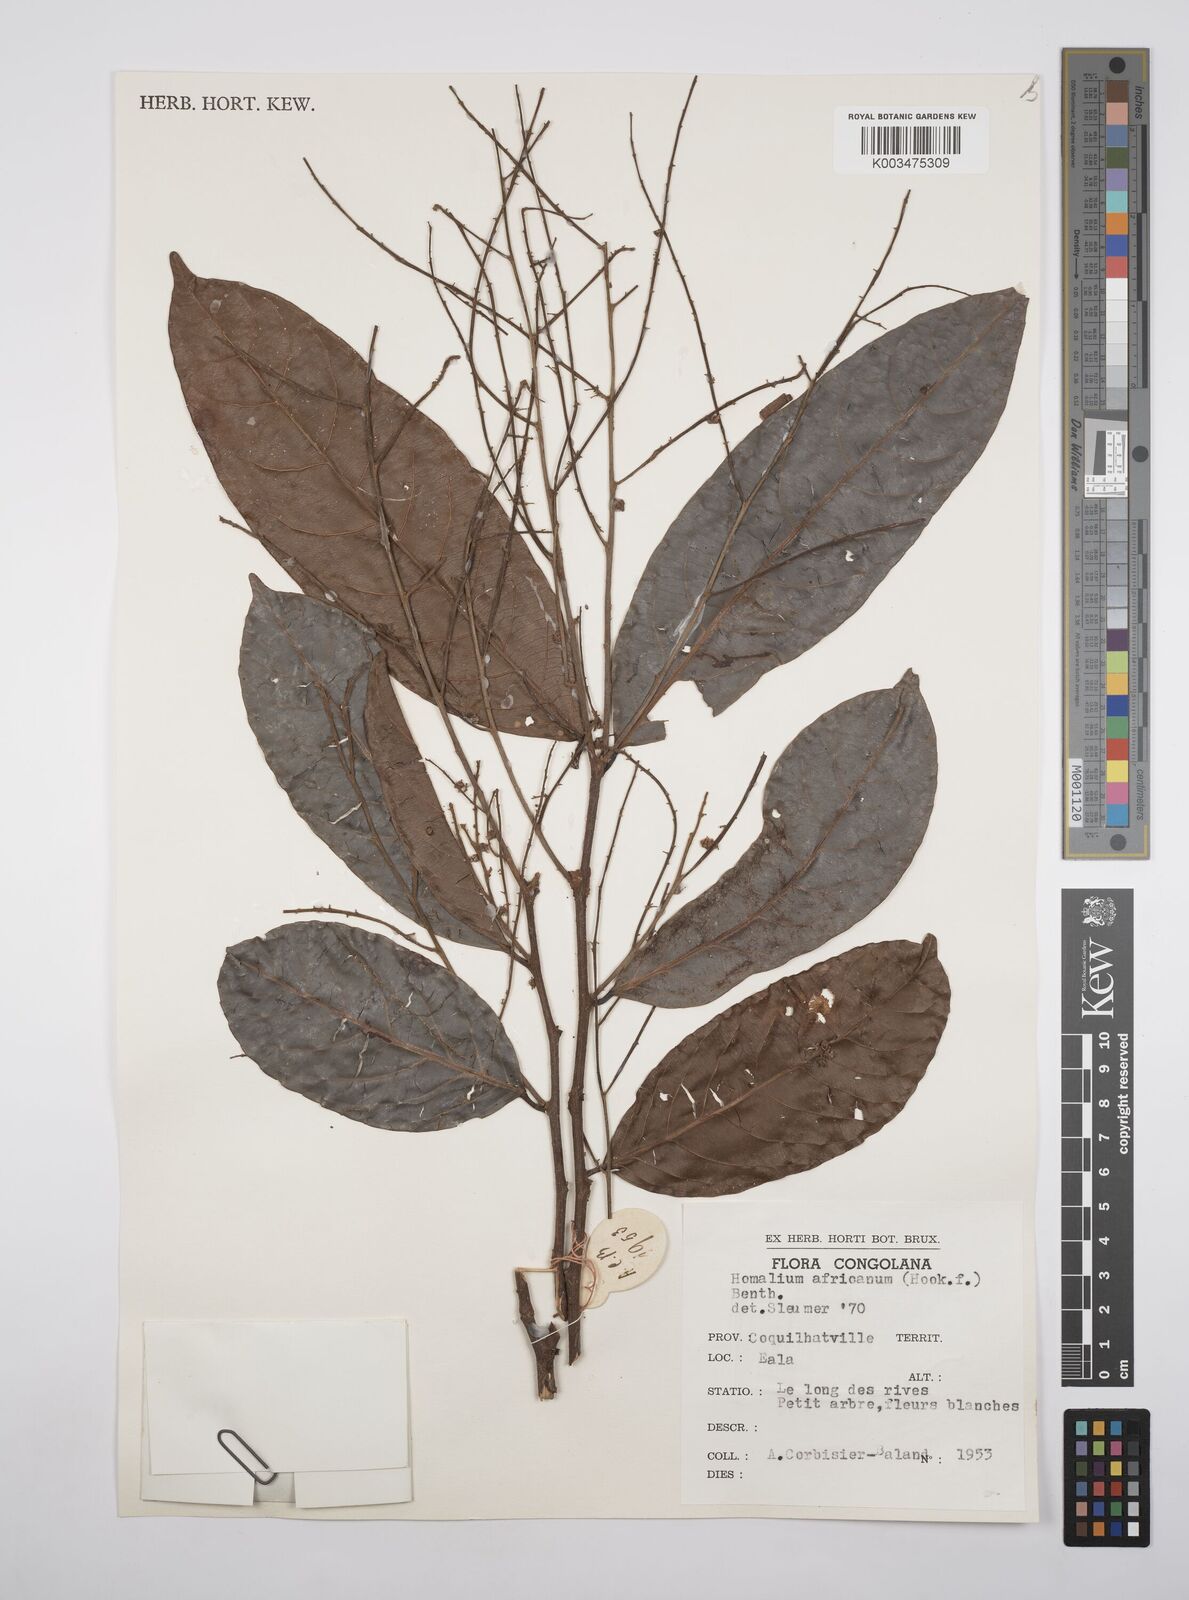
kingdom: Plantae
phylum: Tracheophyta
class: Magnoliopsida
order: Malpighiales
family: Salicaceae
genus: Homalium
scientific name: Homalium africanum
